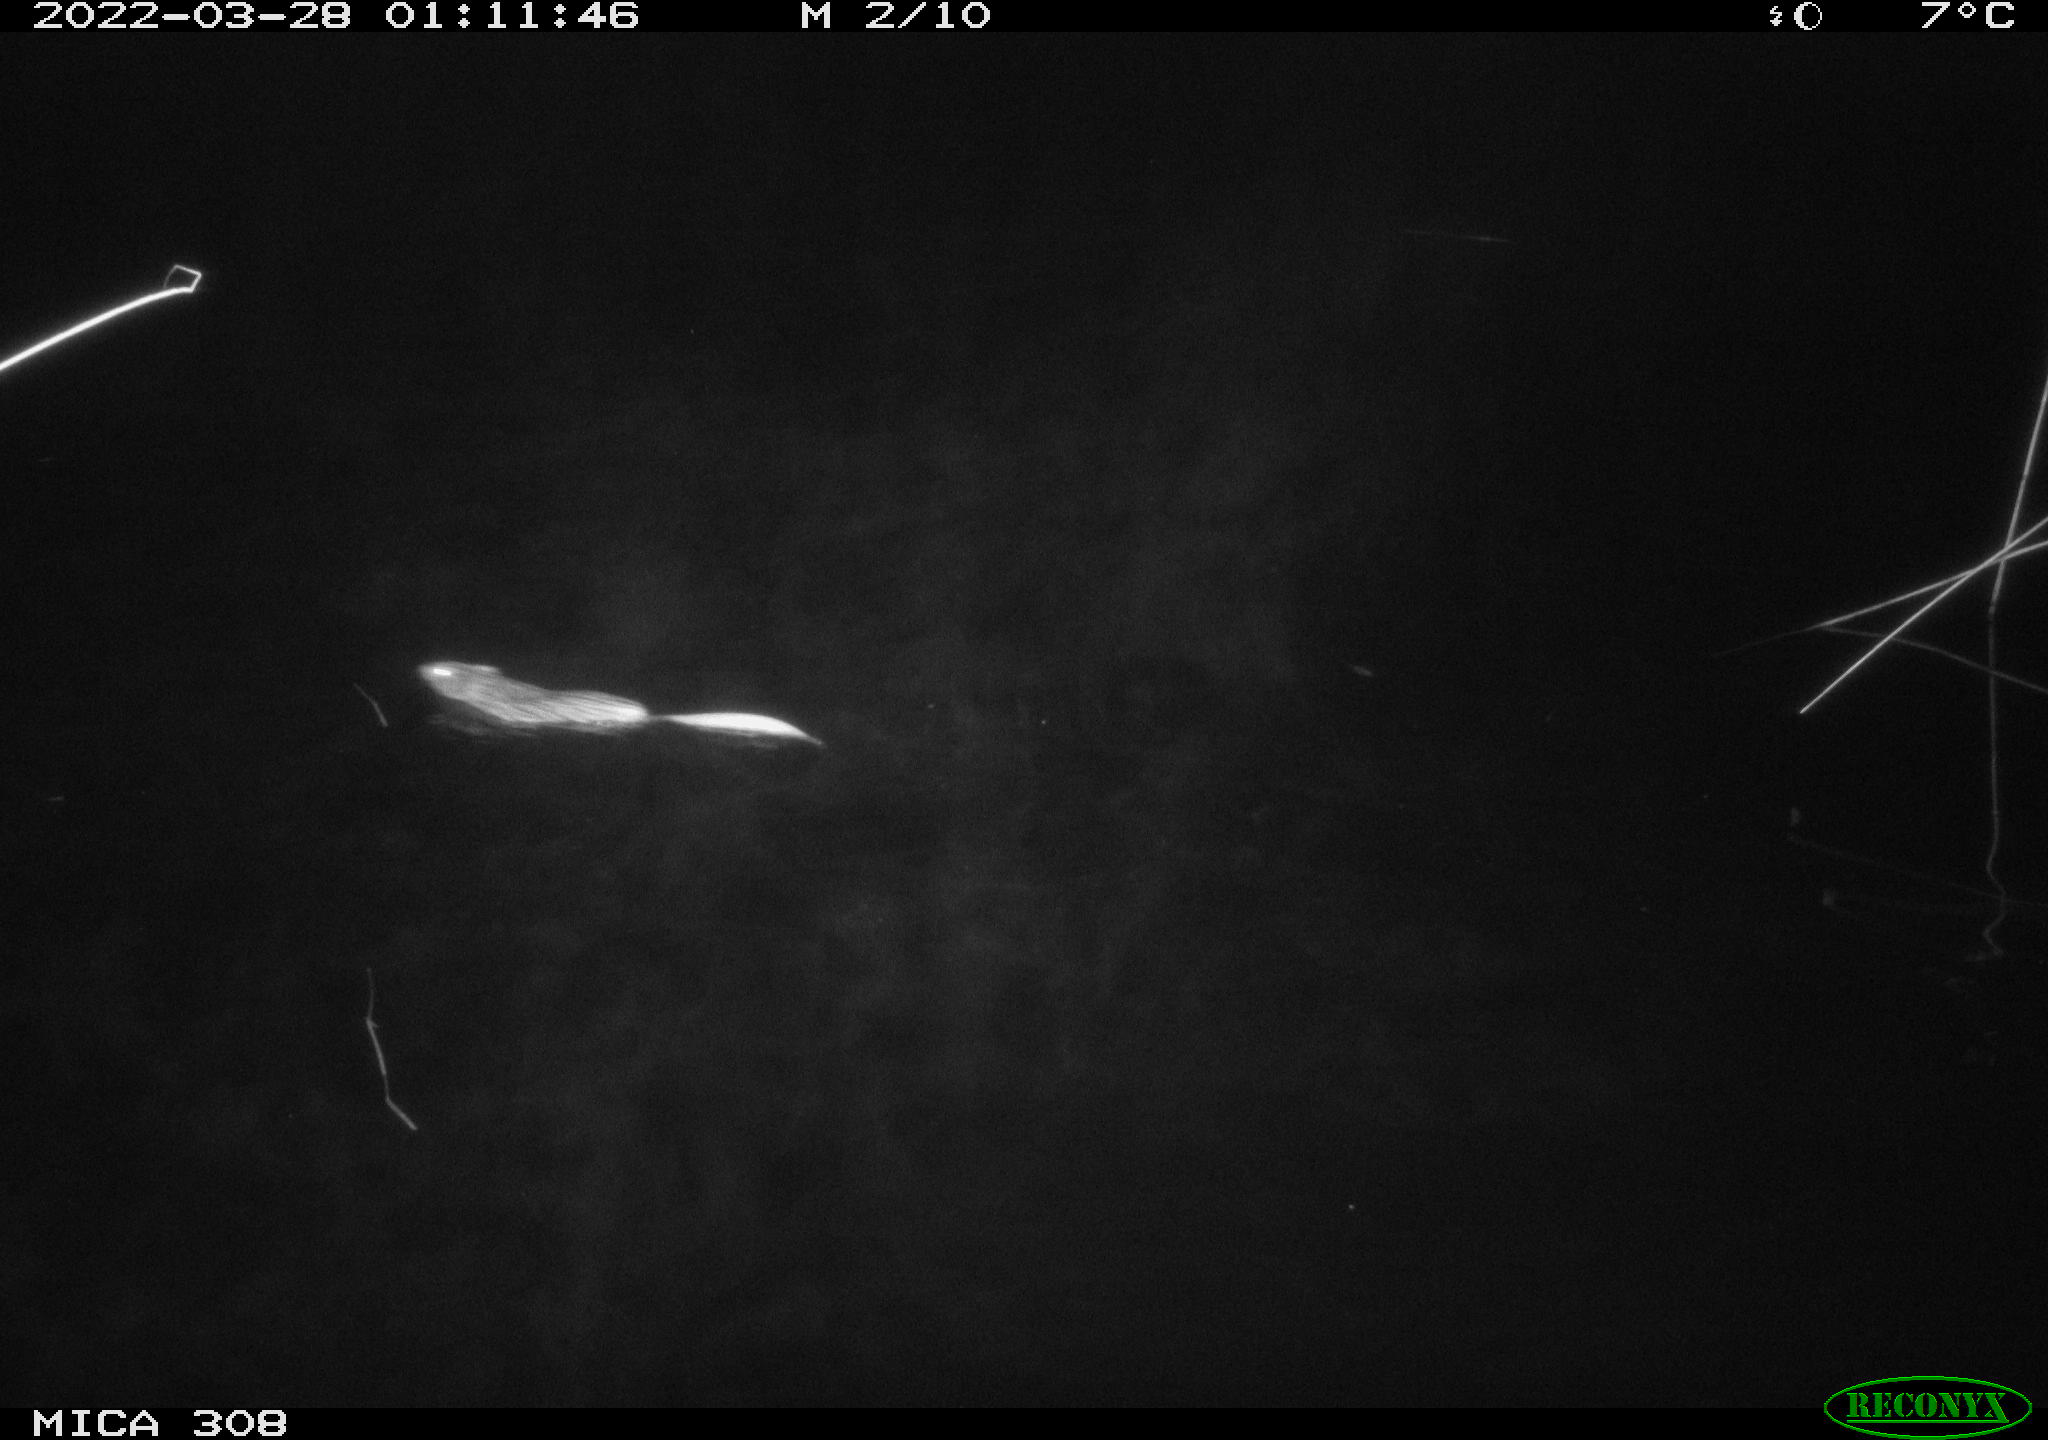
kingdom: Animalia
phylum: Chordata
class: Mammalia
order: Rodentia
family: Cricetidae
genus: Ondatra
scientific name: Ondatra zibethicus
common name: Muskrat
